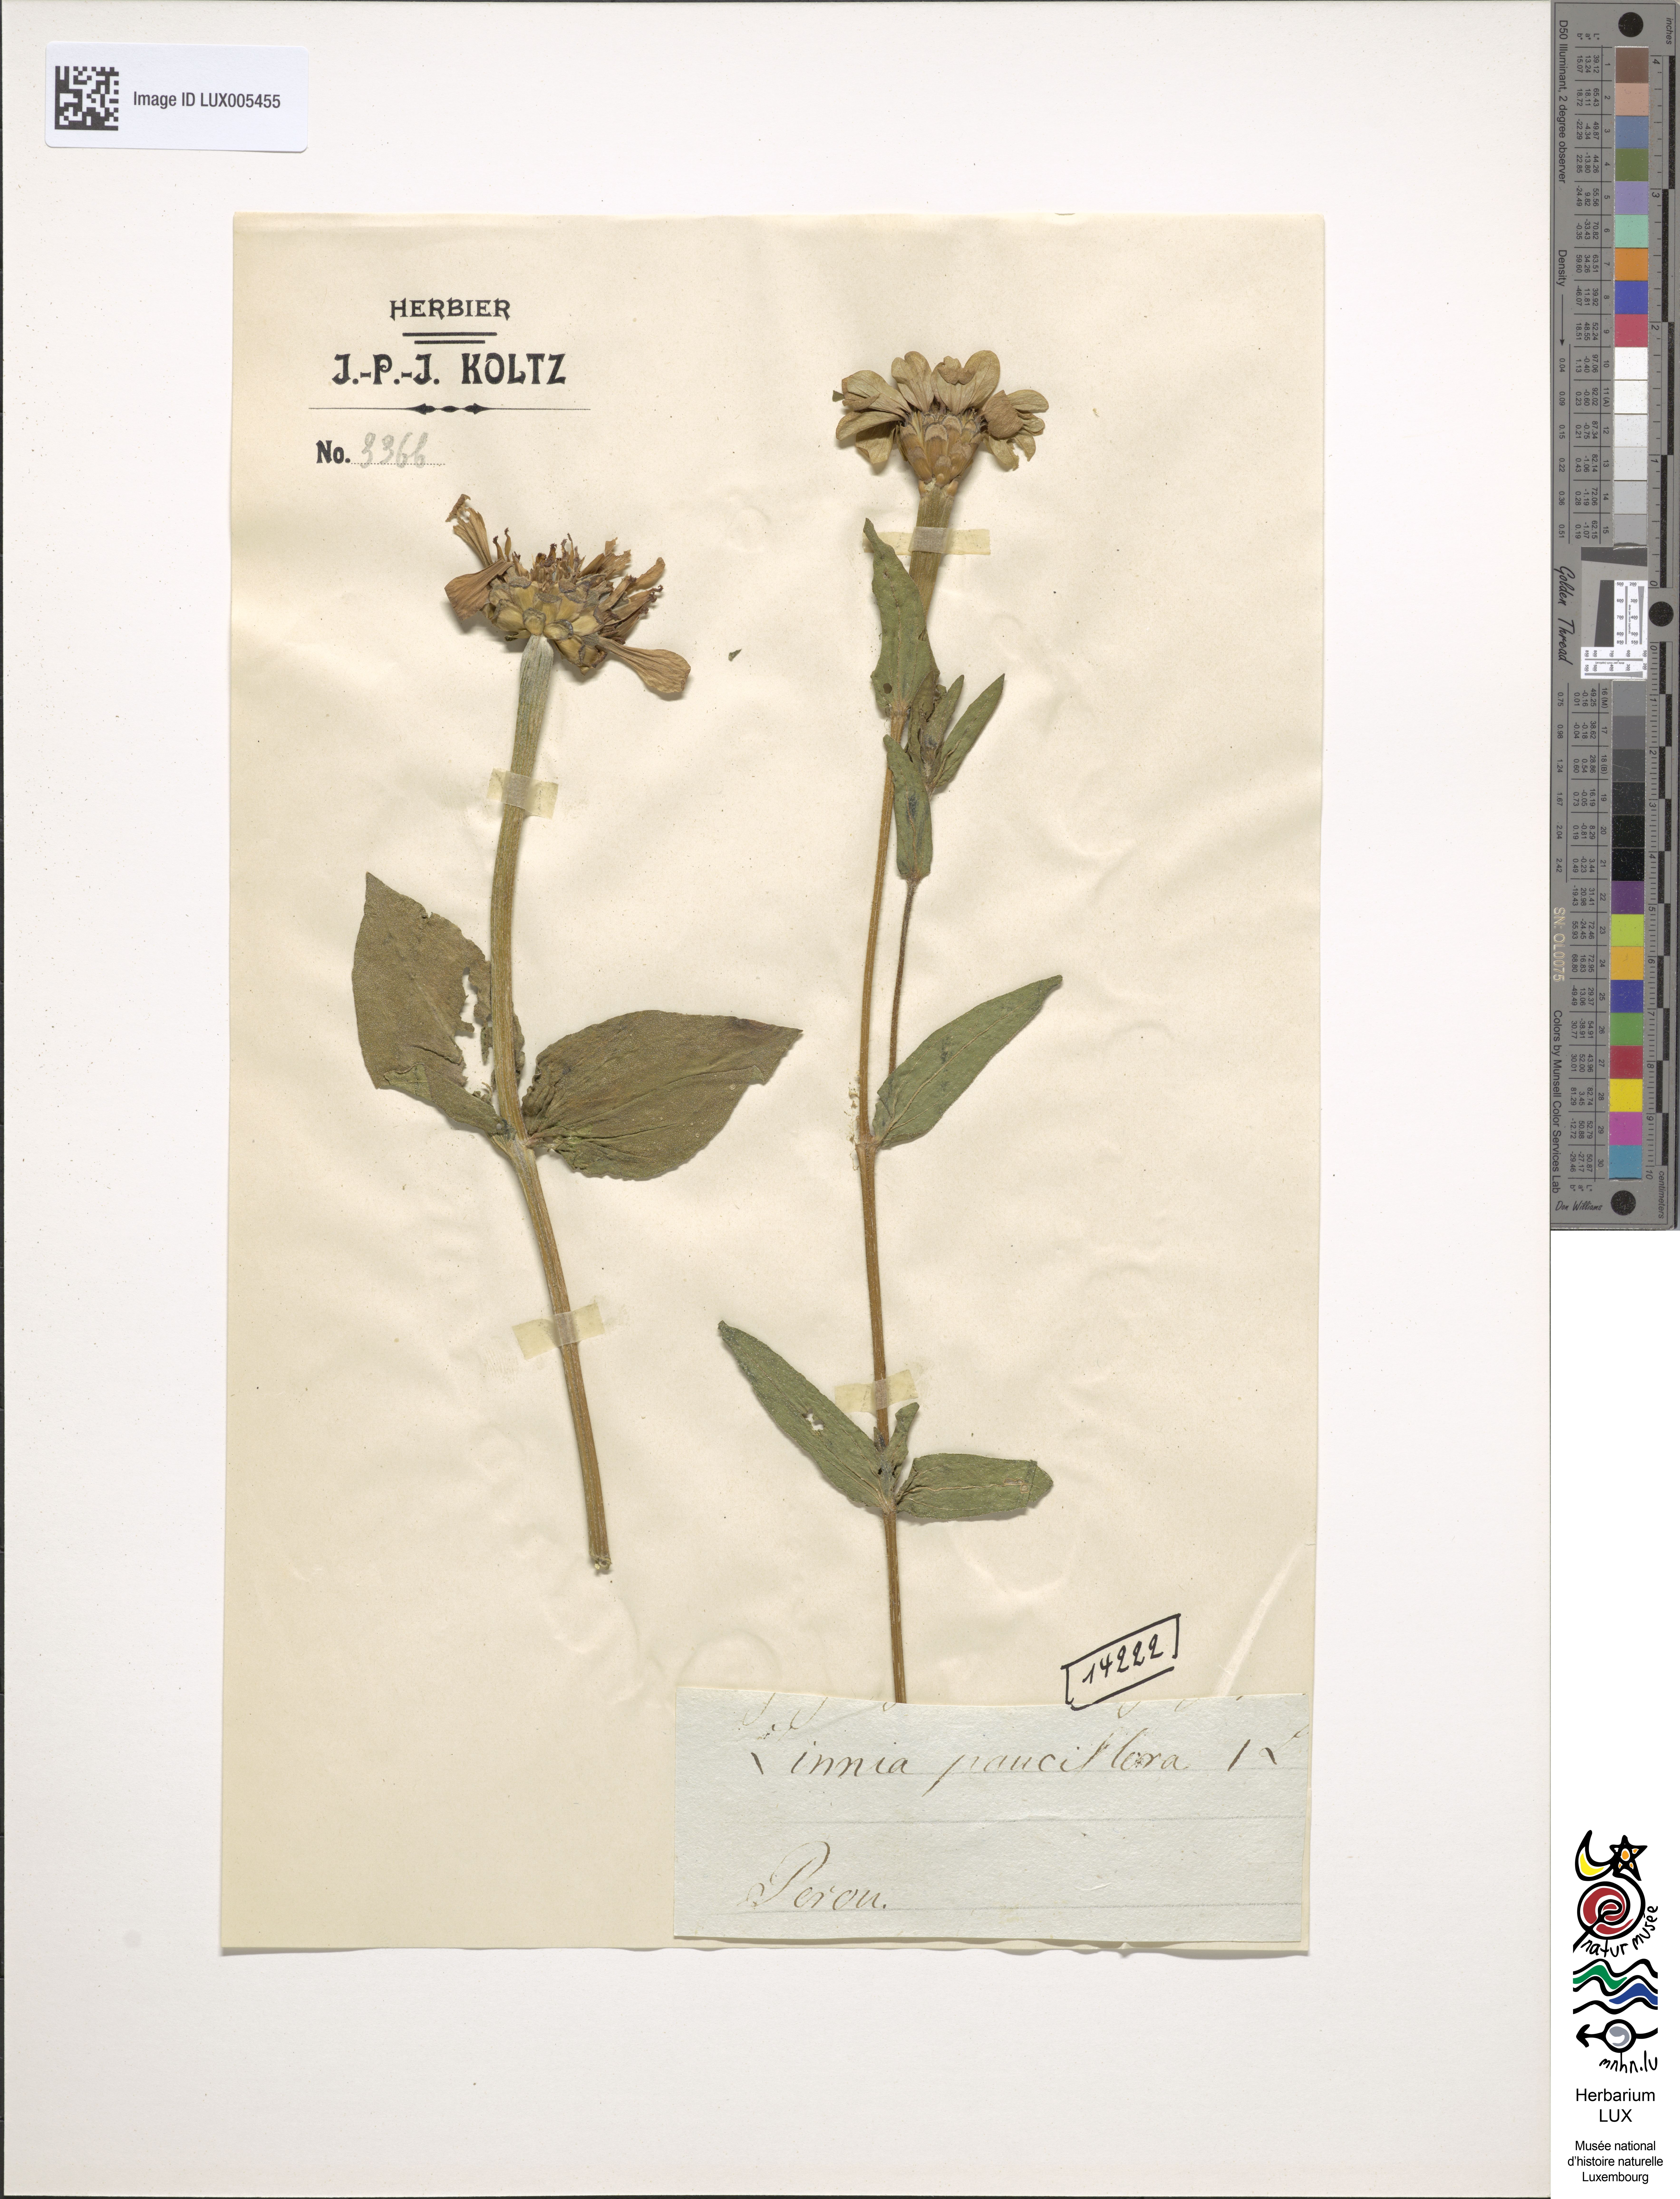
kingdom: Plantae
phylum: Tracheophyta
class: Magnoliopsida
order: Asterales
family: Asteraceae
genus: Zinnia
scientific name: Zinnia peruviana
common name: Peruvian zinnia
